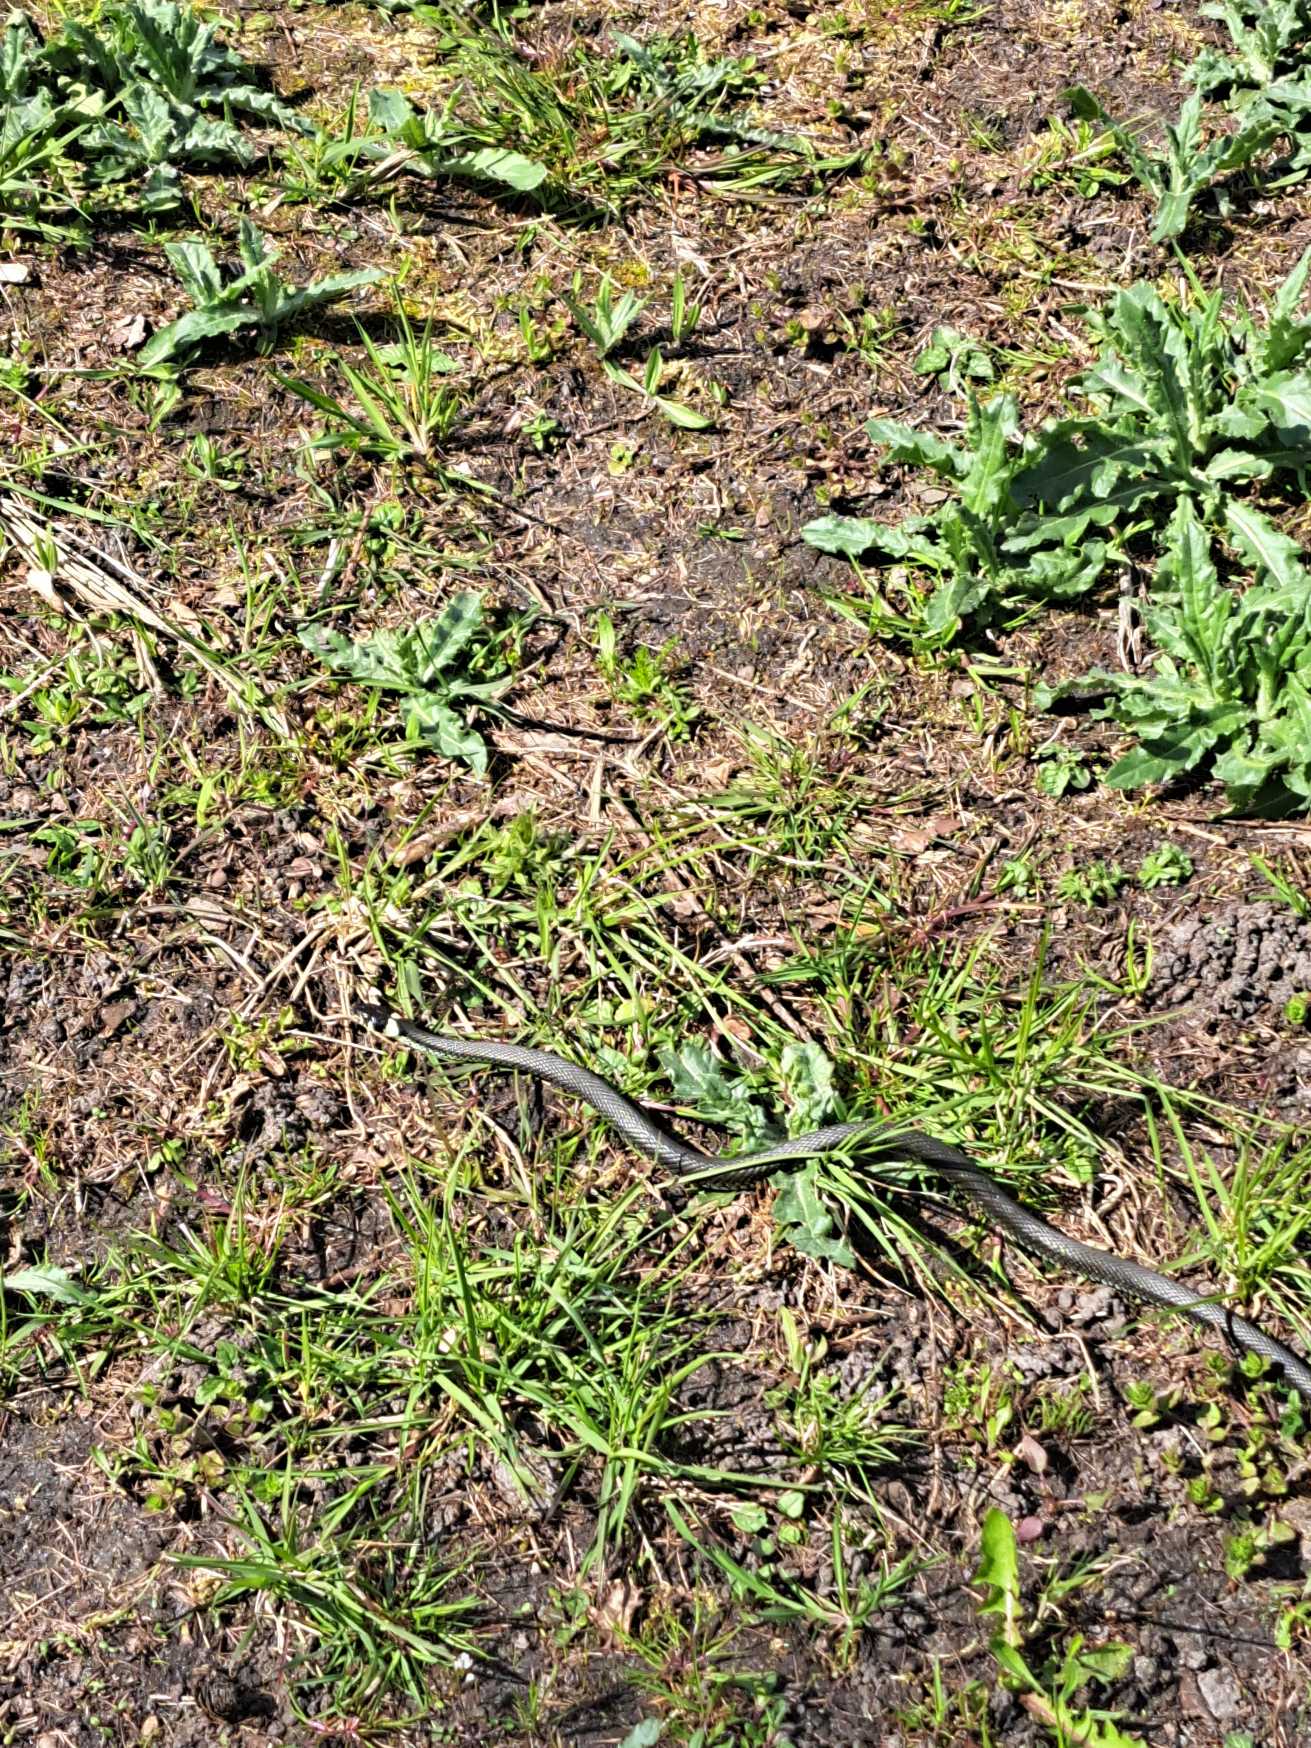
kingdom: Animalia
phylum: Chordata
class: Squamata
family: Colubridae
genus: Natrix
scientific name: Natrix natrix
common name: Snog
